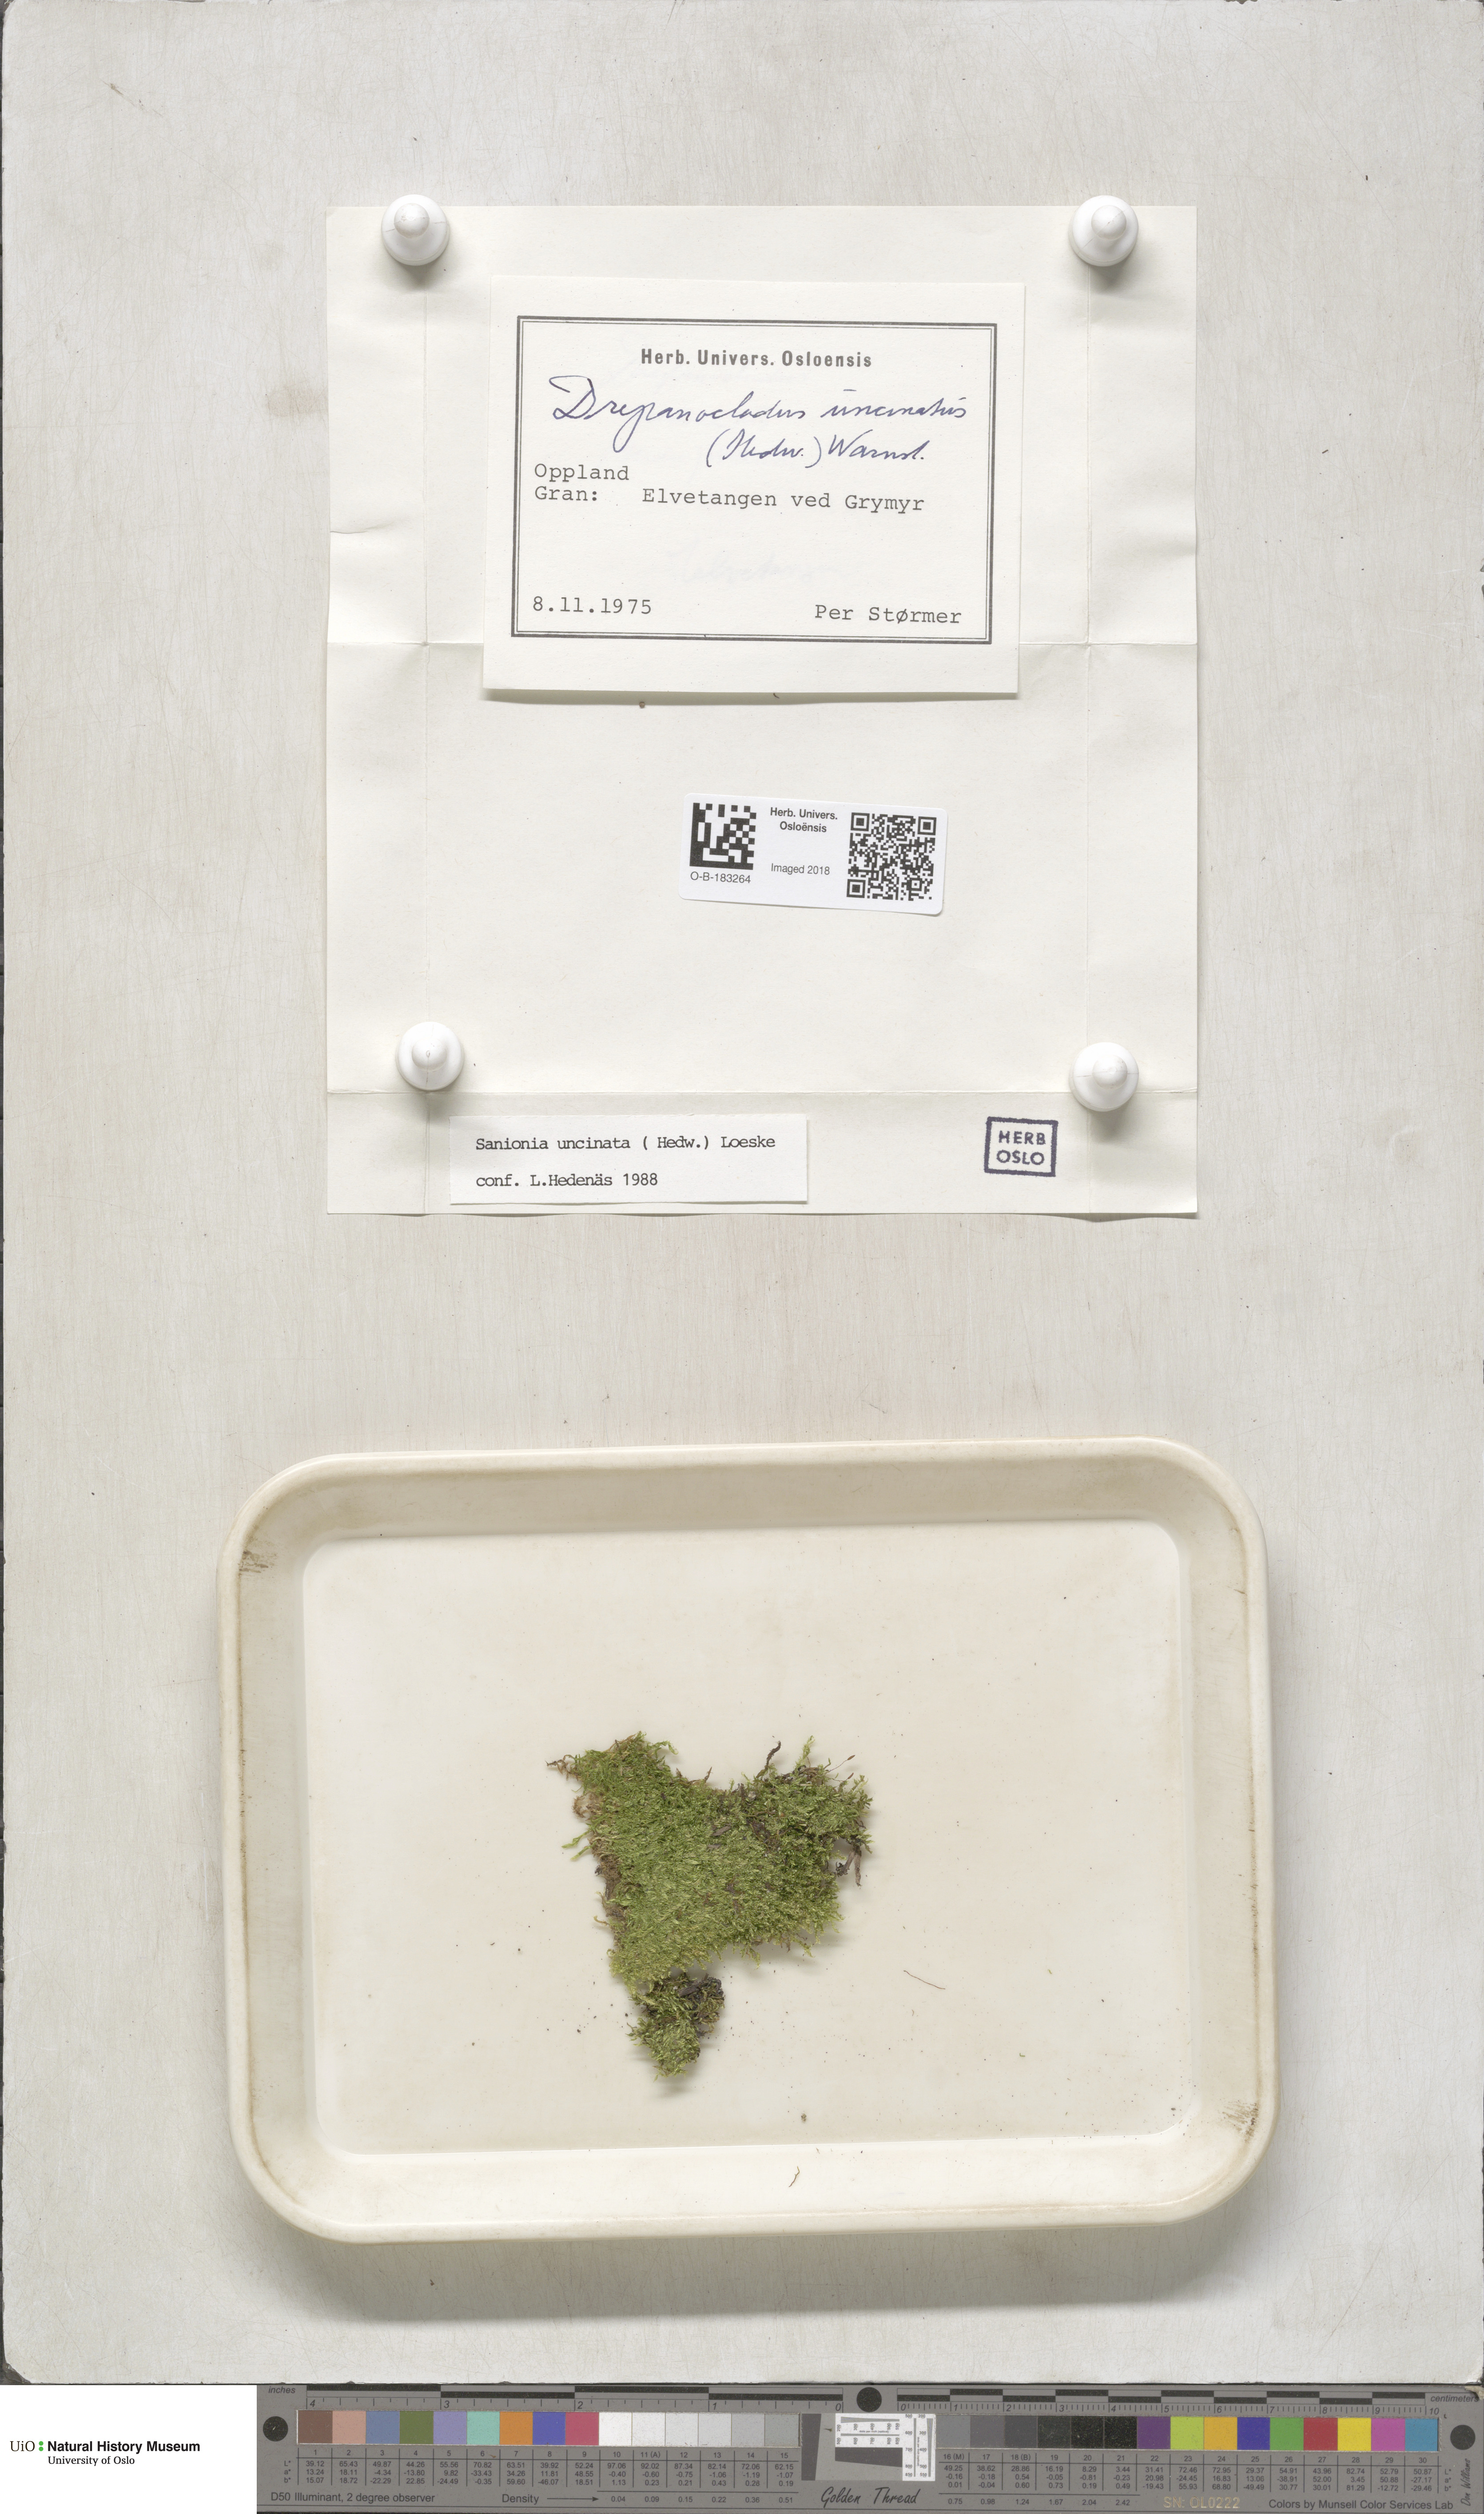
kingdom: Plantae
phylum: Bryophyta
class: Bryopsida
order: Hypnales
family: Scorpidiaceae
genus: Sanionia
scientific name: Sanionia uncinata
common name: Sickle moss
